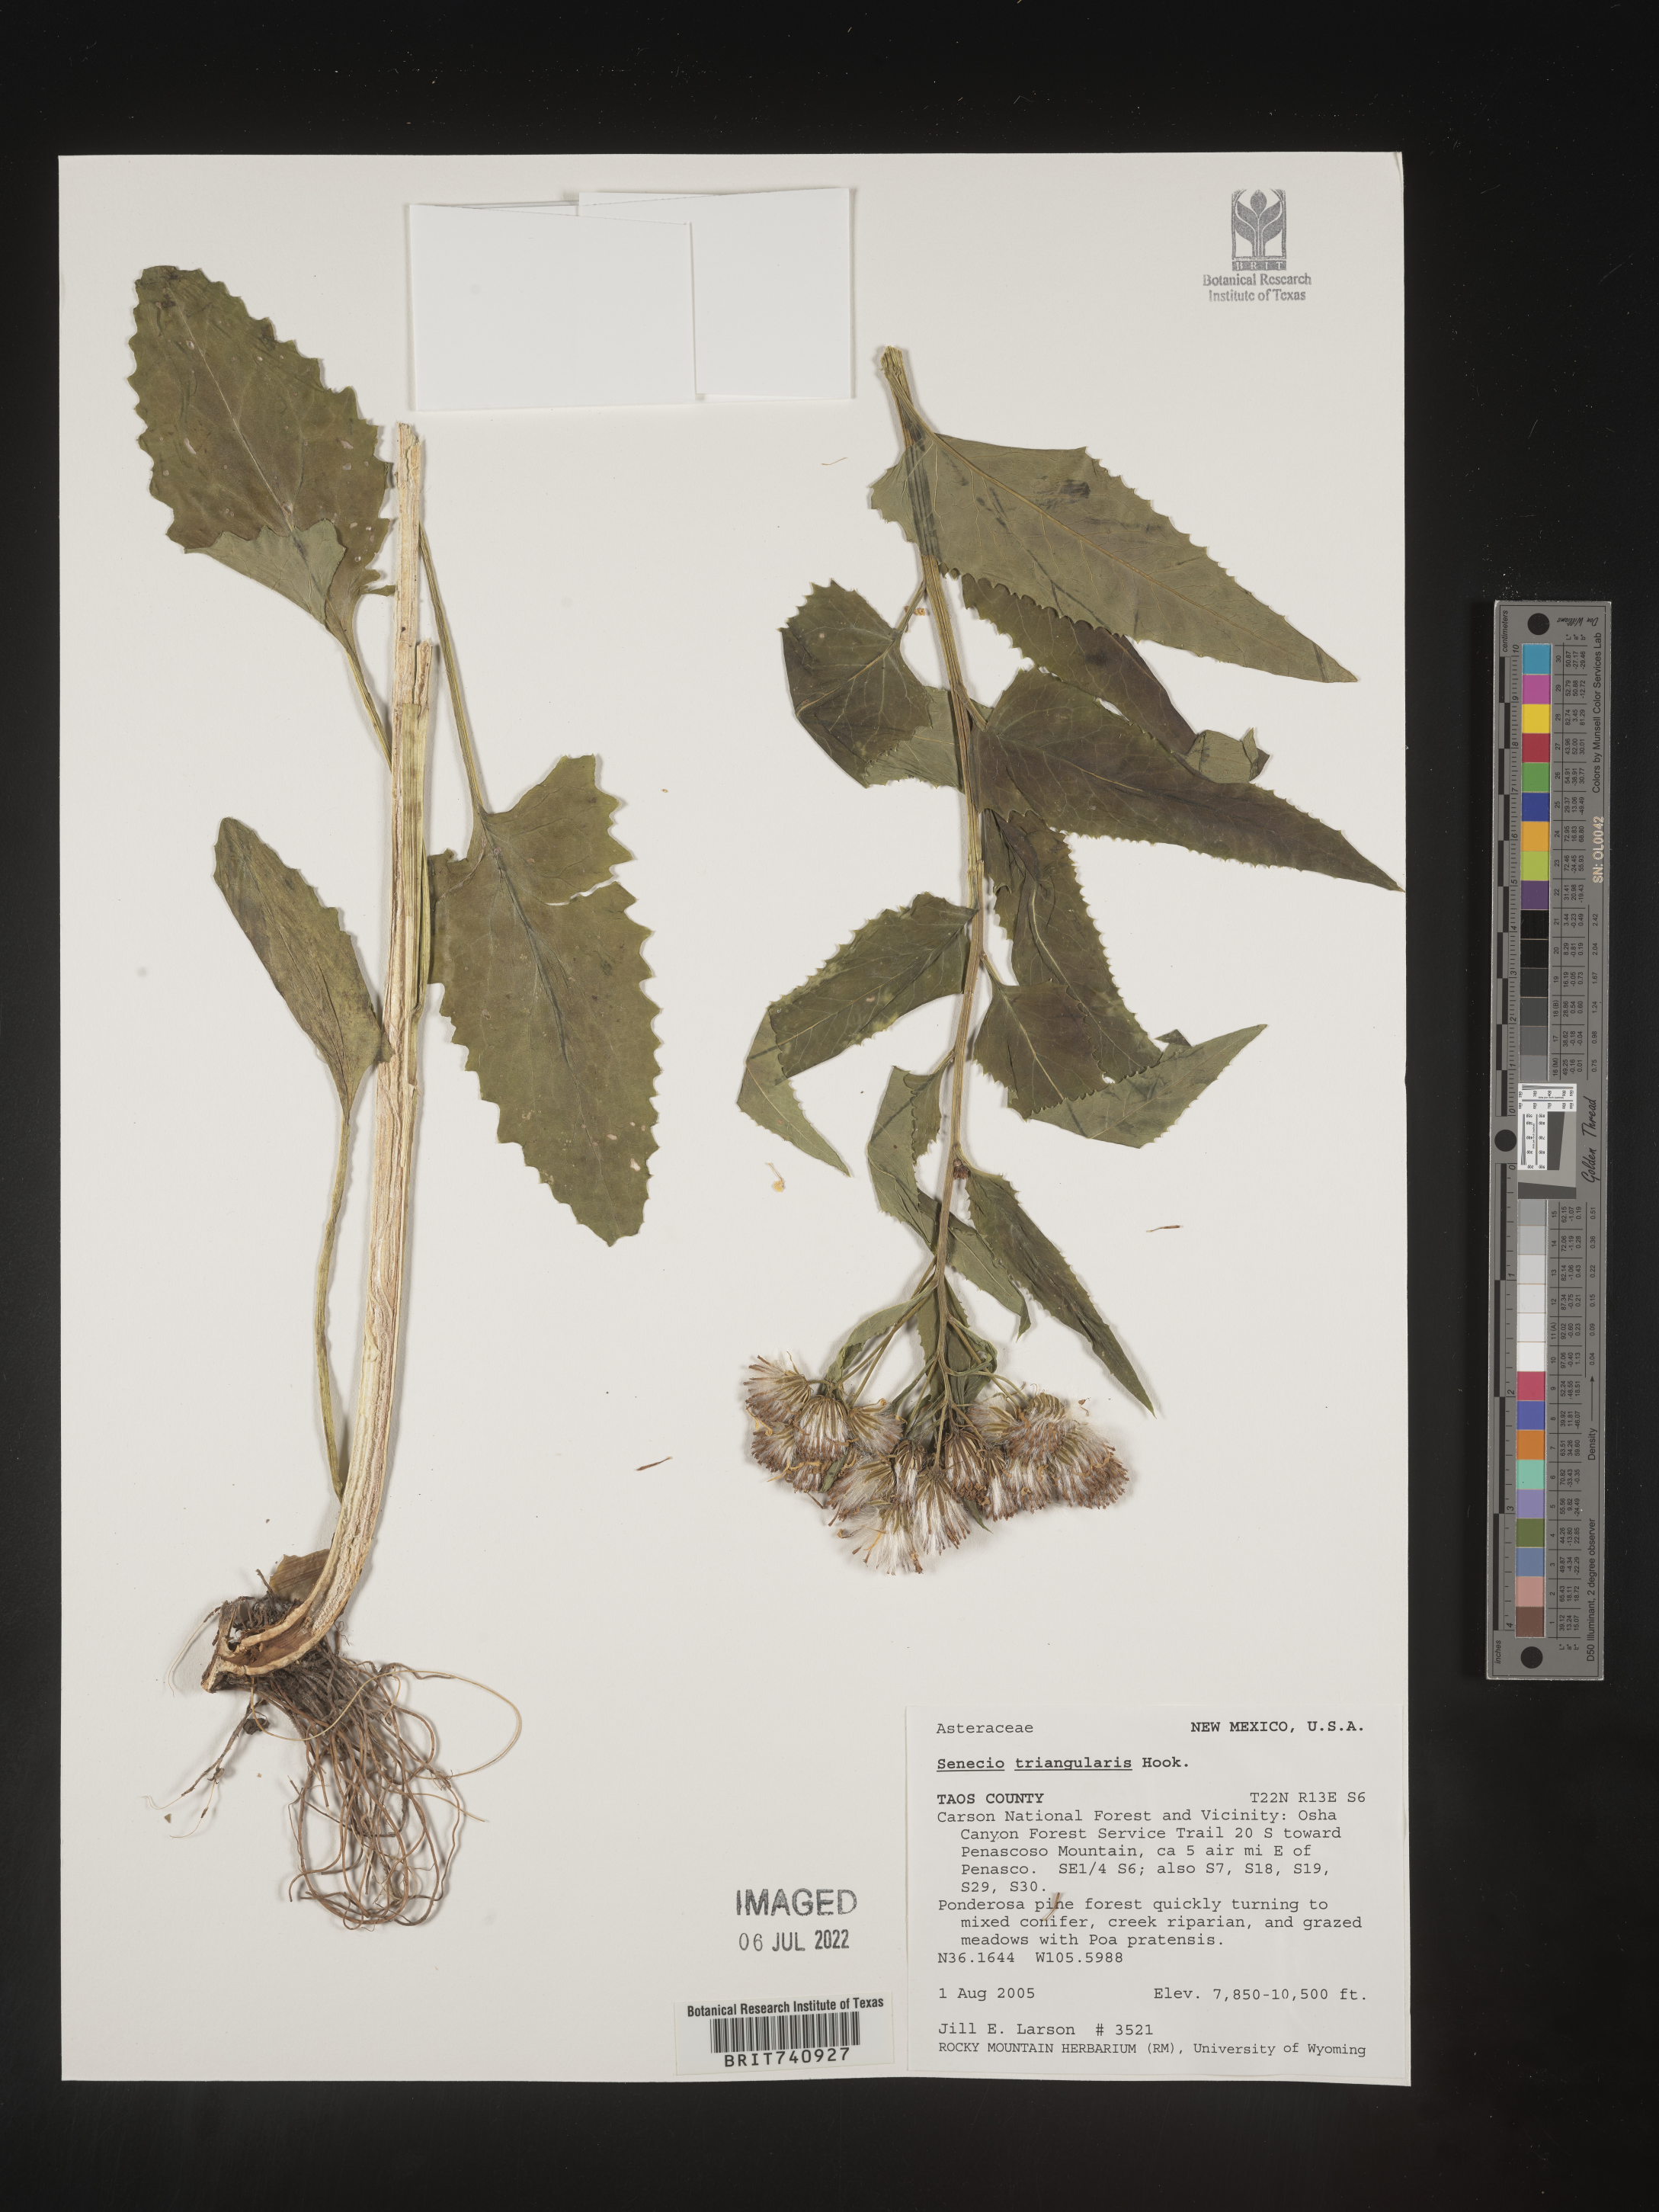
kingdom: Plantae
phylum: Tracheophyta
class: Magnoliopsida
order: Asterales
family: Asteraceae
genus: Senecio
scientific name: Senecio triangularis
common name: Arrowleaf butterweed
